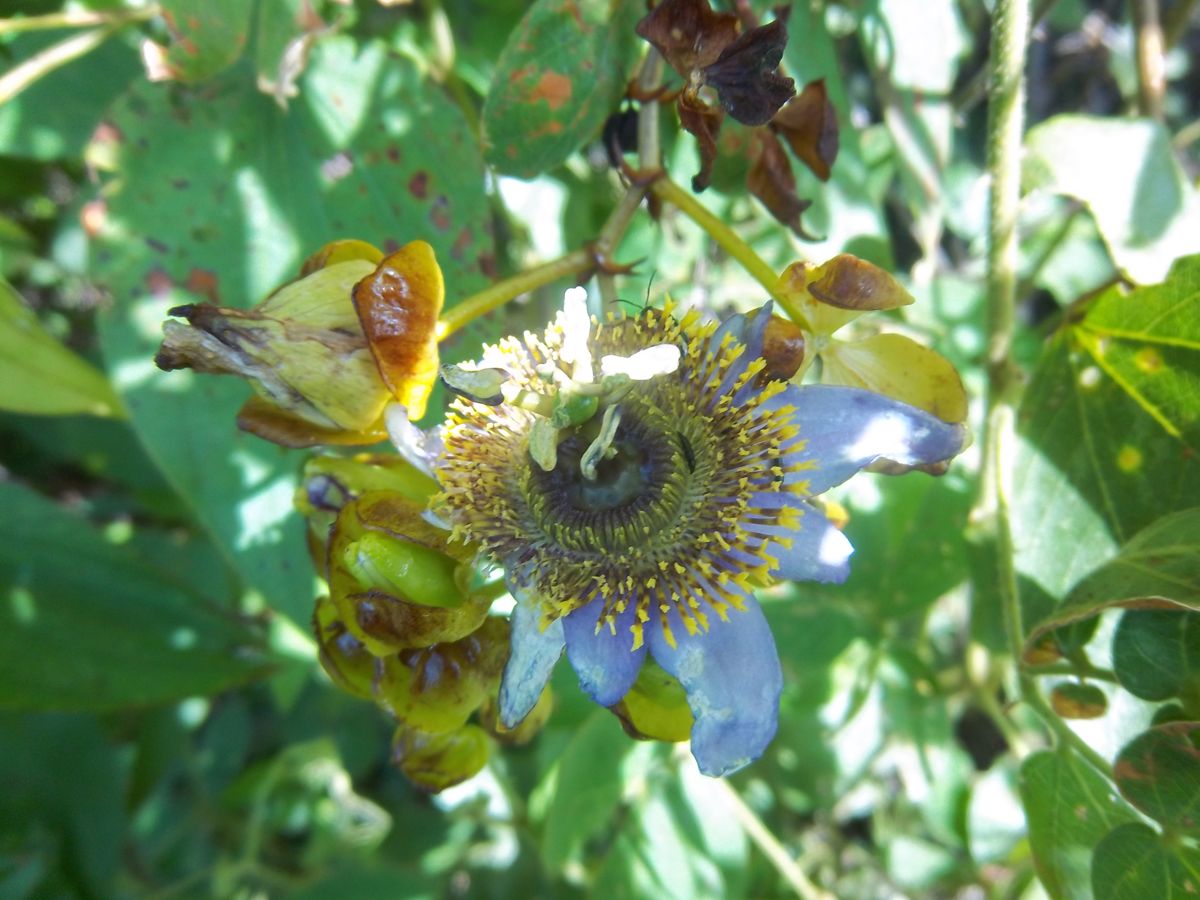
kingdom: Plantae
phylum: Tracheophyta
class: Magnoliopsida
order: Malpighiales
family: Passifloraceae
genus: Passiflora
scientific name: Passiflora bicornis
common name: Wingleaf passionflower
